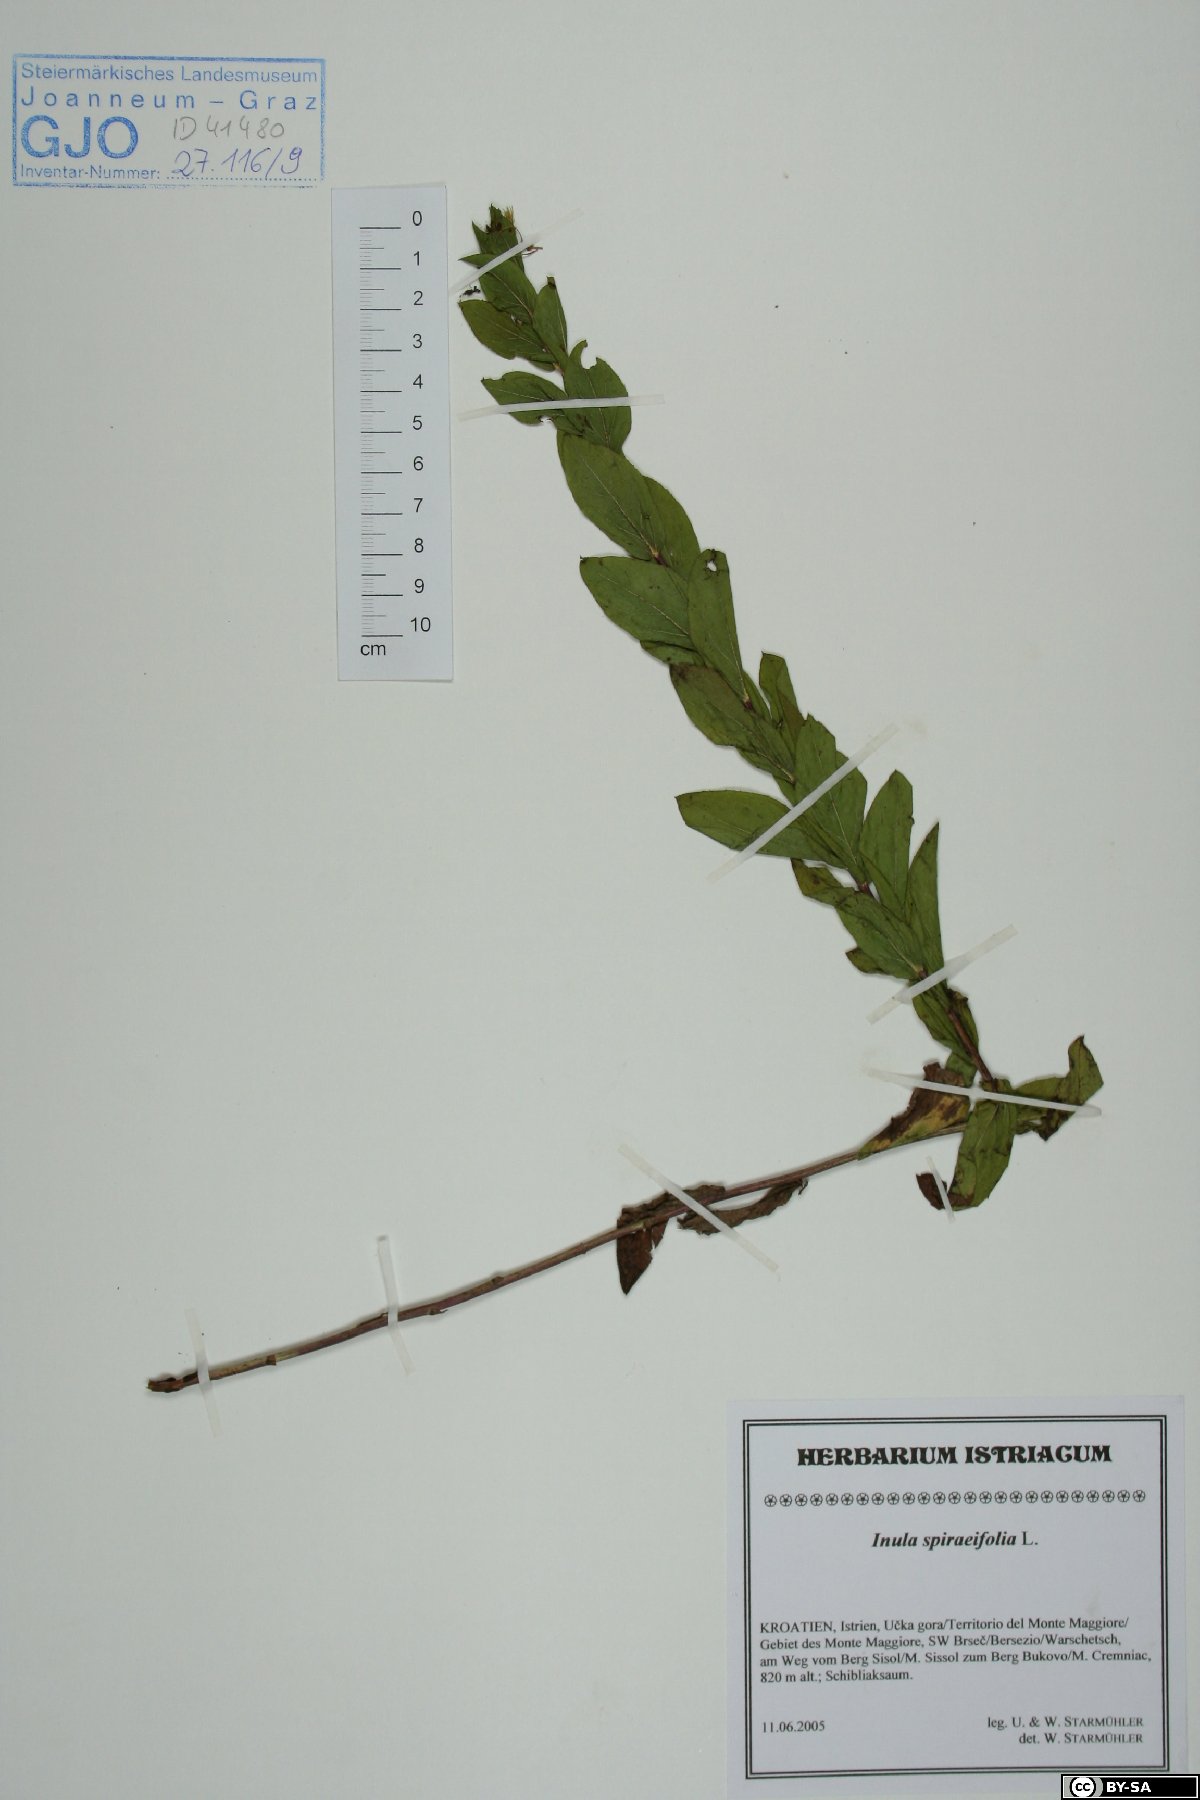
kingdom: Plantae
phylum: Tracheophyta
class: Magnoliopsida
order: Asterales
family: Asteraceae
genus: Pentanema
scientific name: Pentanema spiraeifolium
